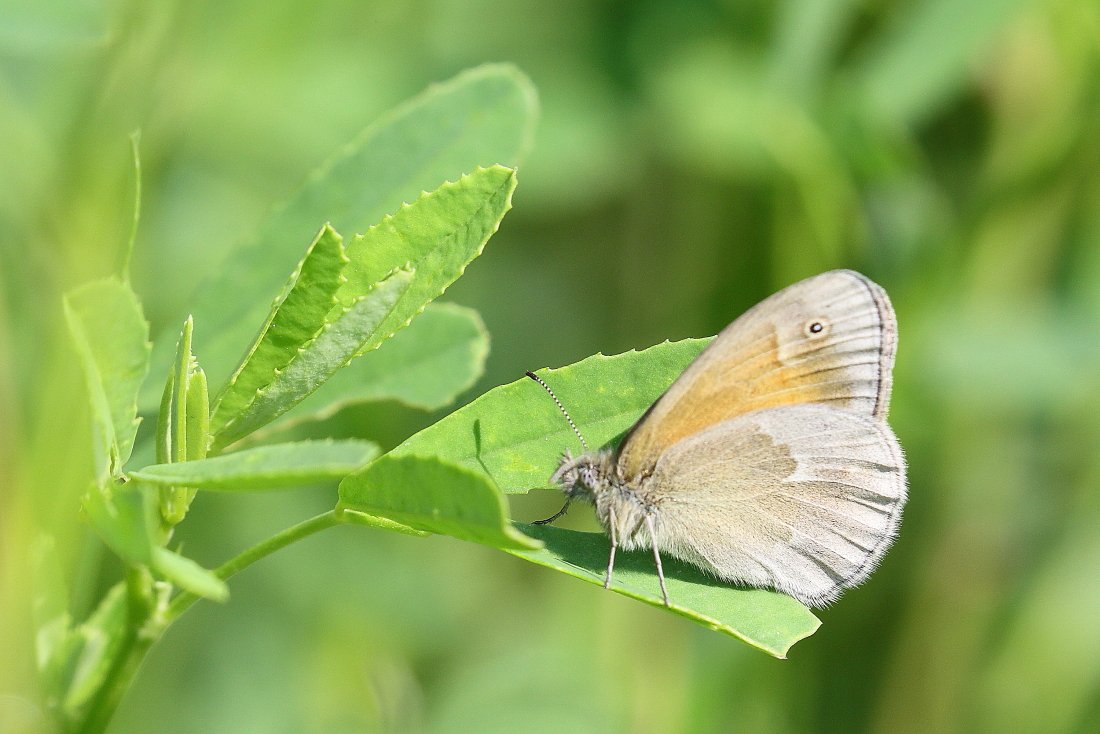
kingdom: Animalia
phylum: Arthropoda
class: Insecta
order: Lepidoptera
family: Nymphalidae
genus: Coenonympha
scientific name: Coenonympha tullia
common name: Large Heath
